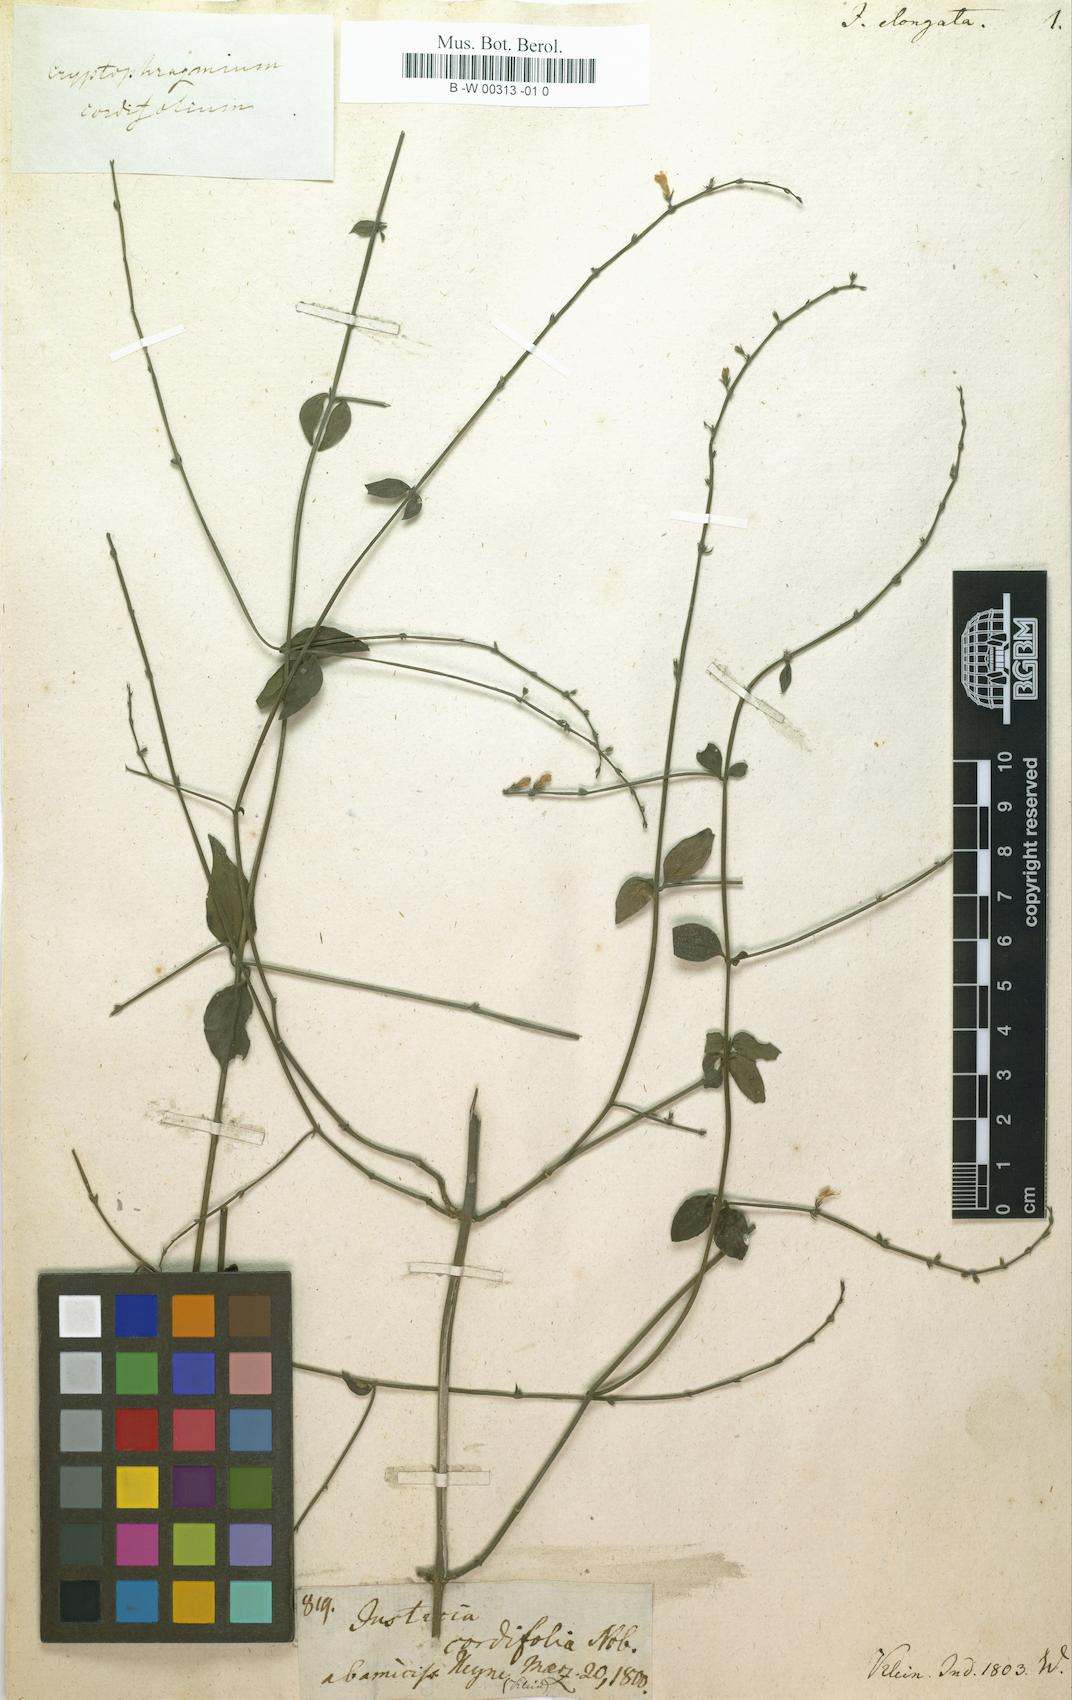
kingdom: Plantae
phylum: Tracheophyta
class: Magnoliopsida
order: Lamiales
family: Acanthaceae
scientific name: Acanthaceae
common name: Acanthaceae
